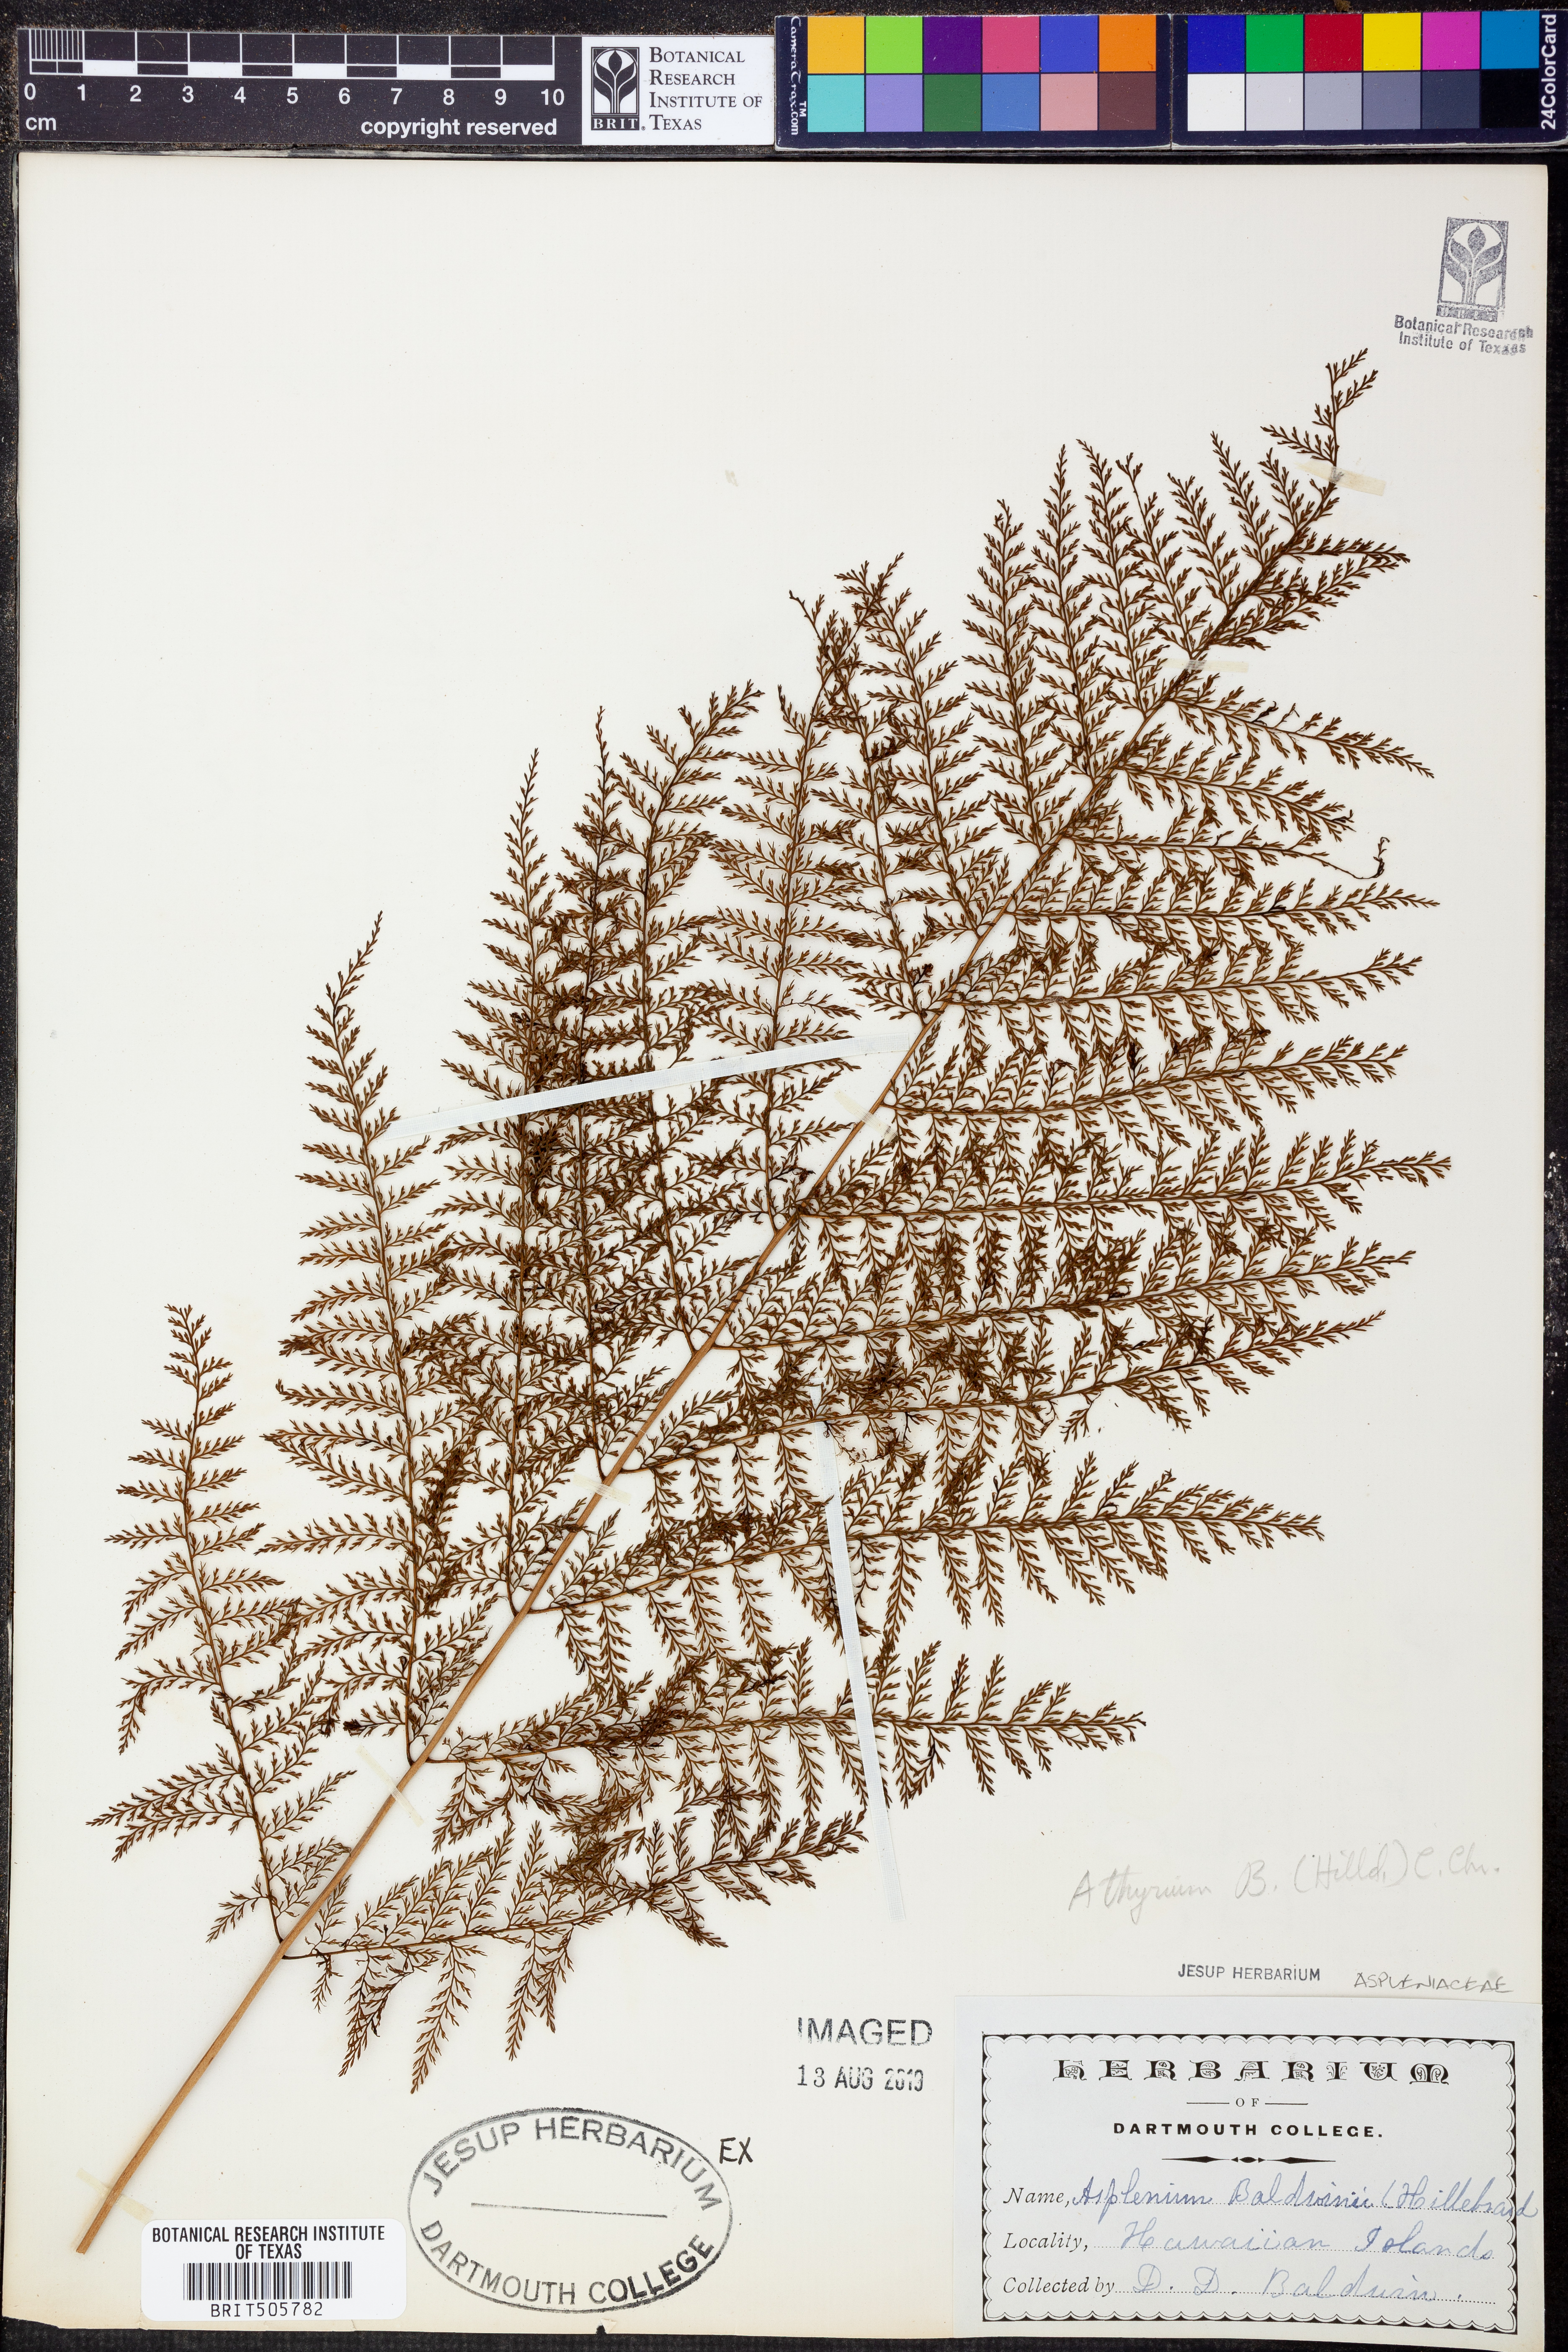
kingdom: Plantae
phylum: Tracheophyta
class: Polypodiopsida
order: Polypodiales
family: Athyriaceae
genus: Athyrium
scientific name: Athyrium microphyllum
